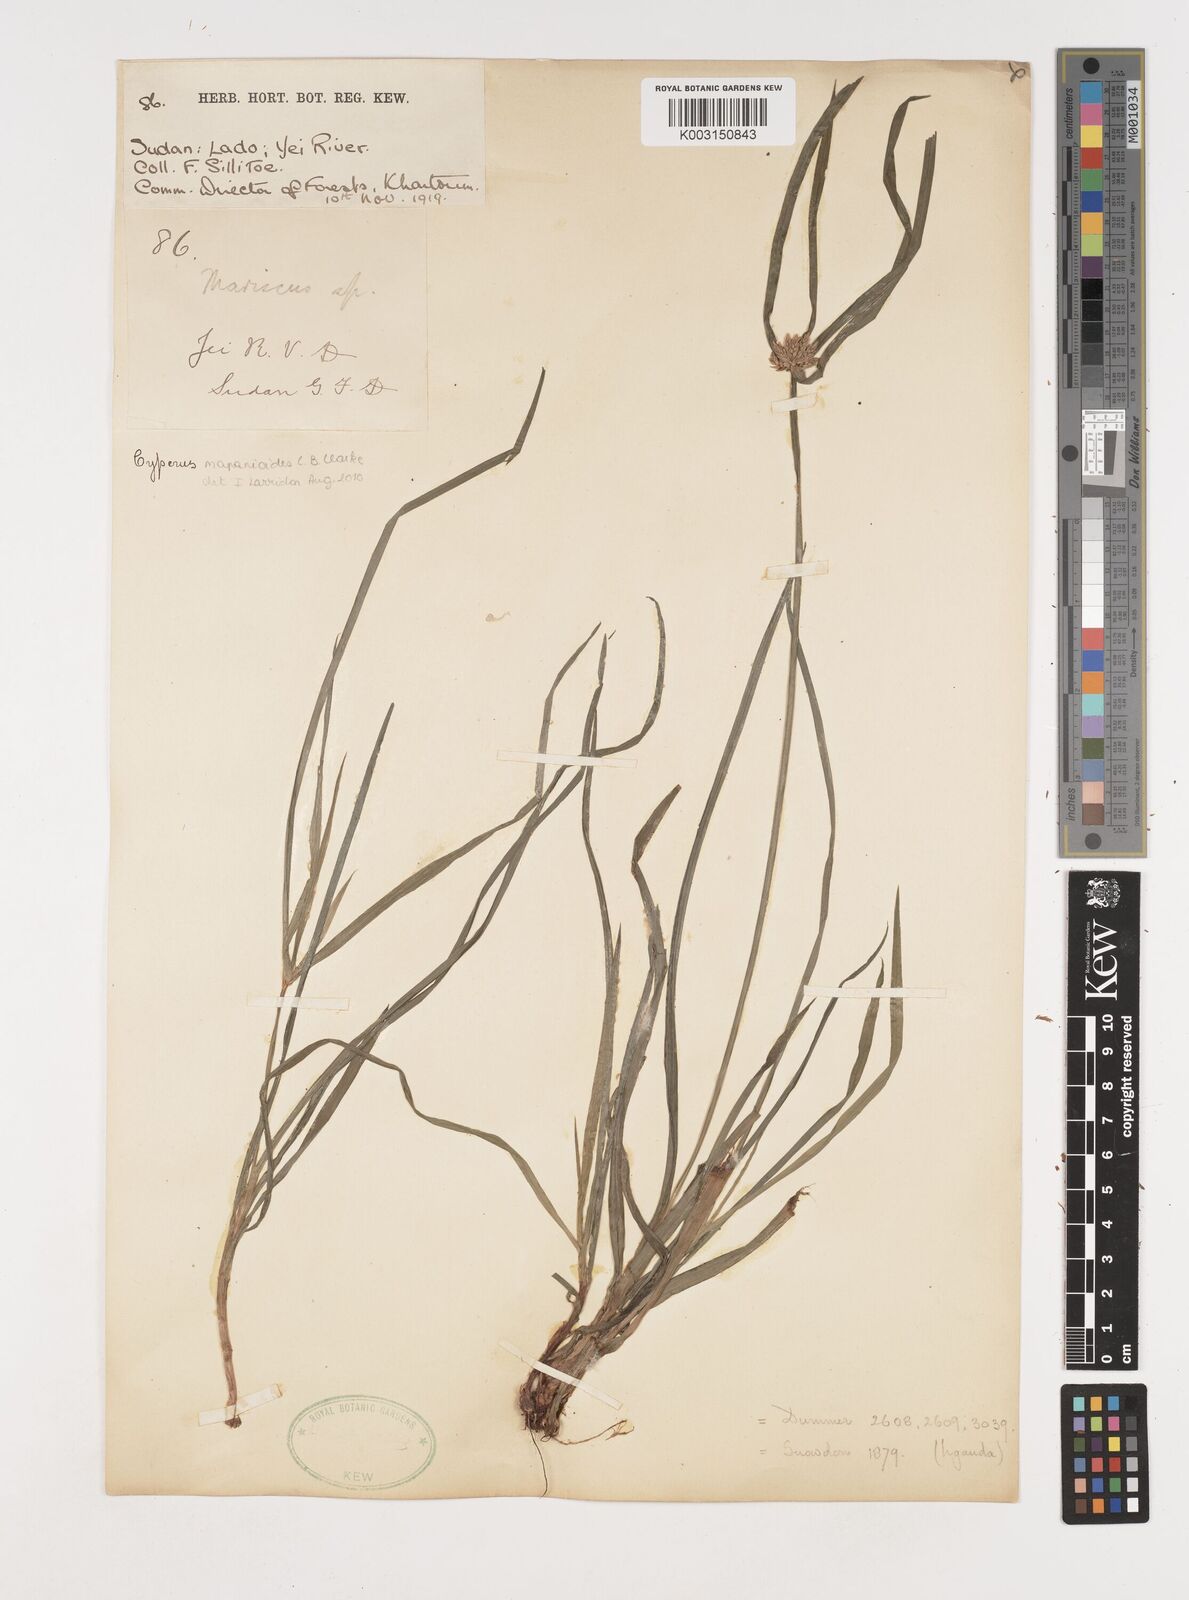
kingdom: Plantae
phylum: Tracheophyta
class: Liliopsida
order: Poales
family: Cyperaceae
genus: Cyperus
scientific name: Cyperus mapanioides
